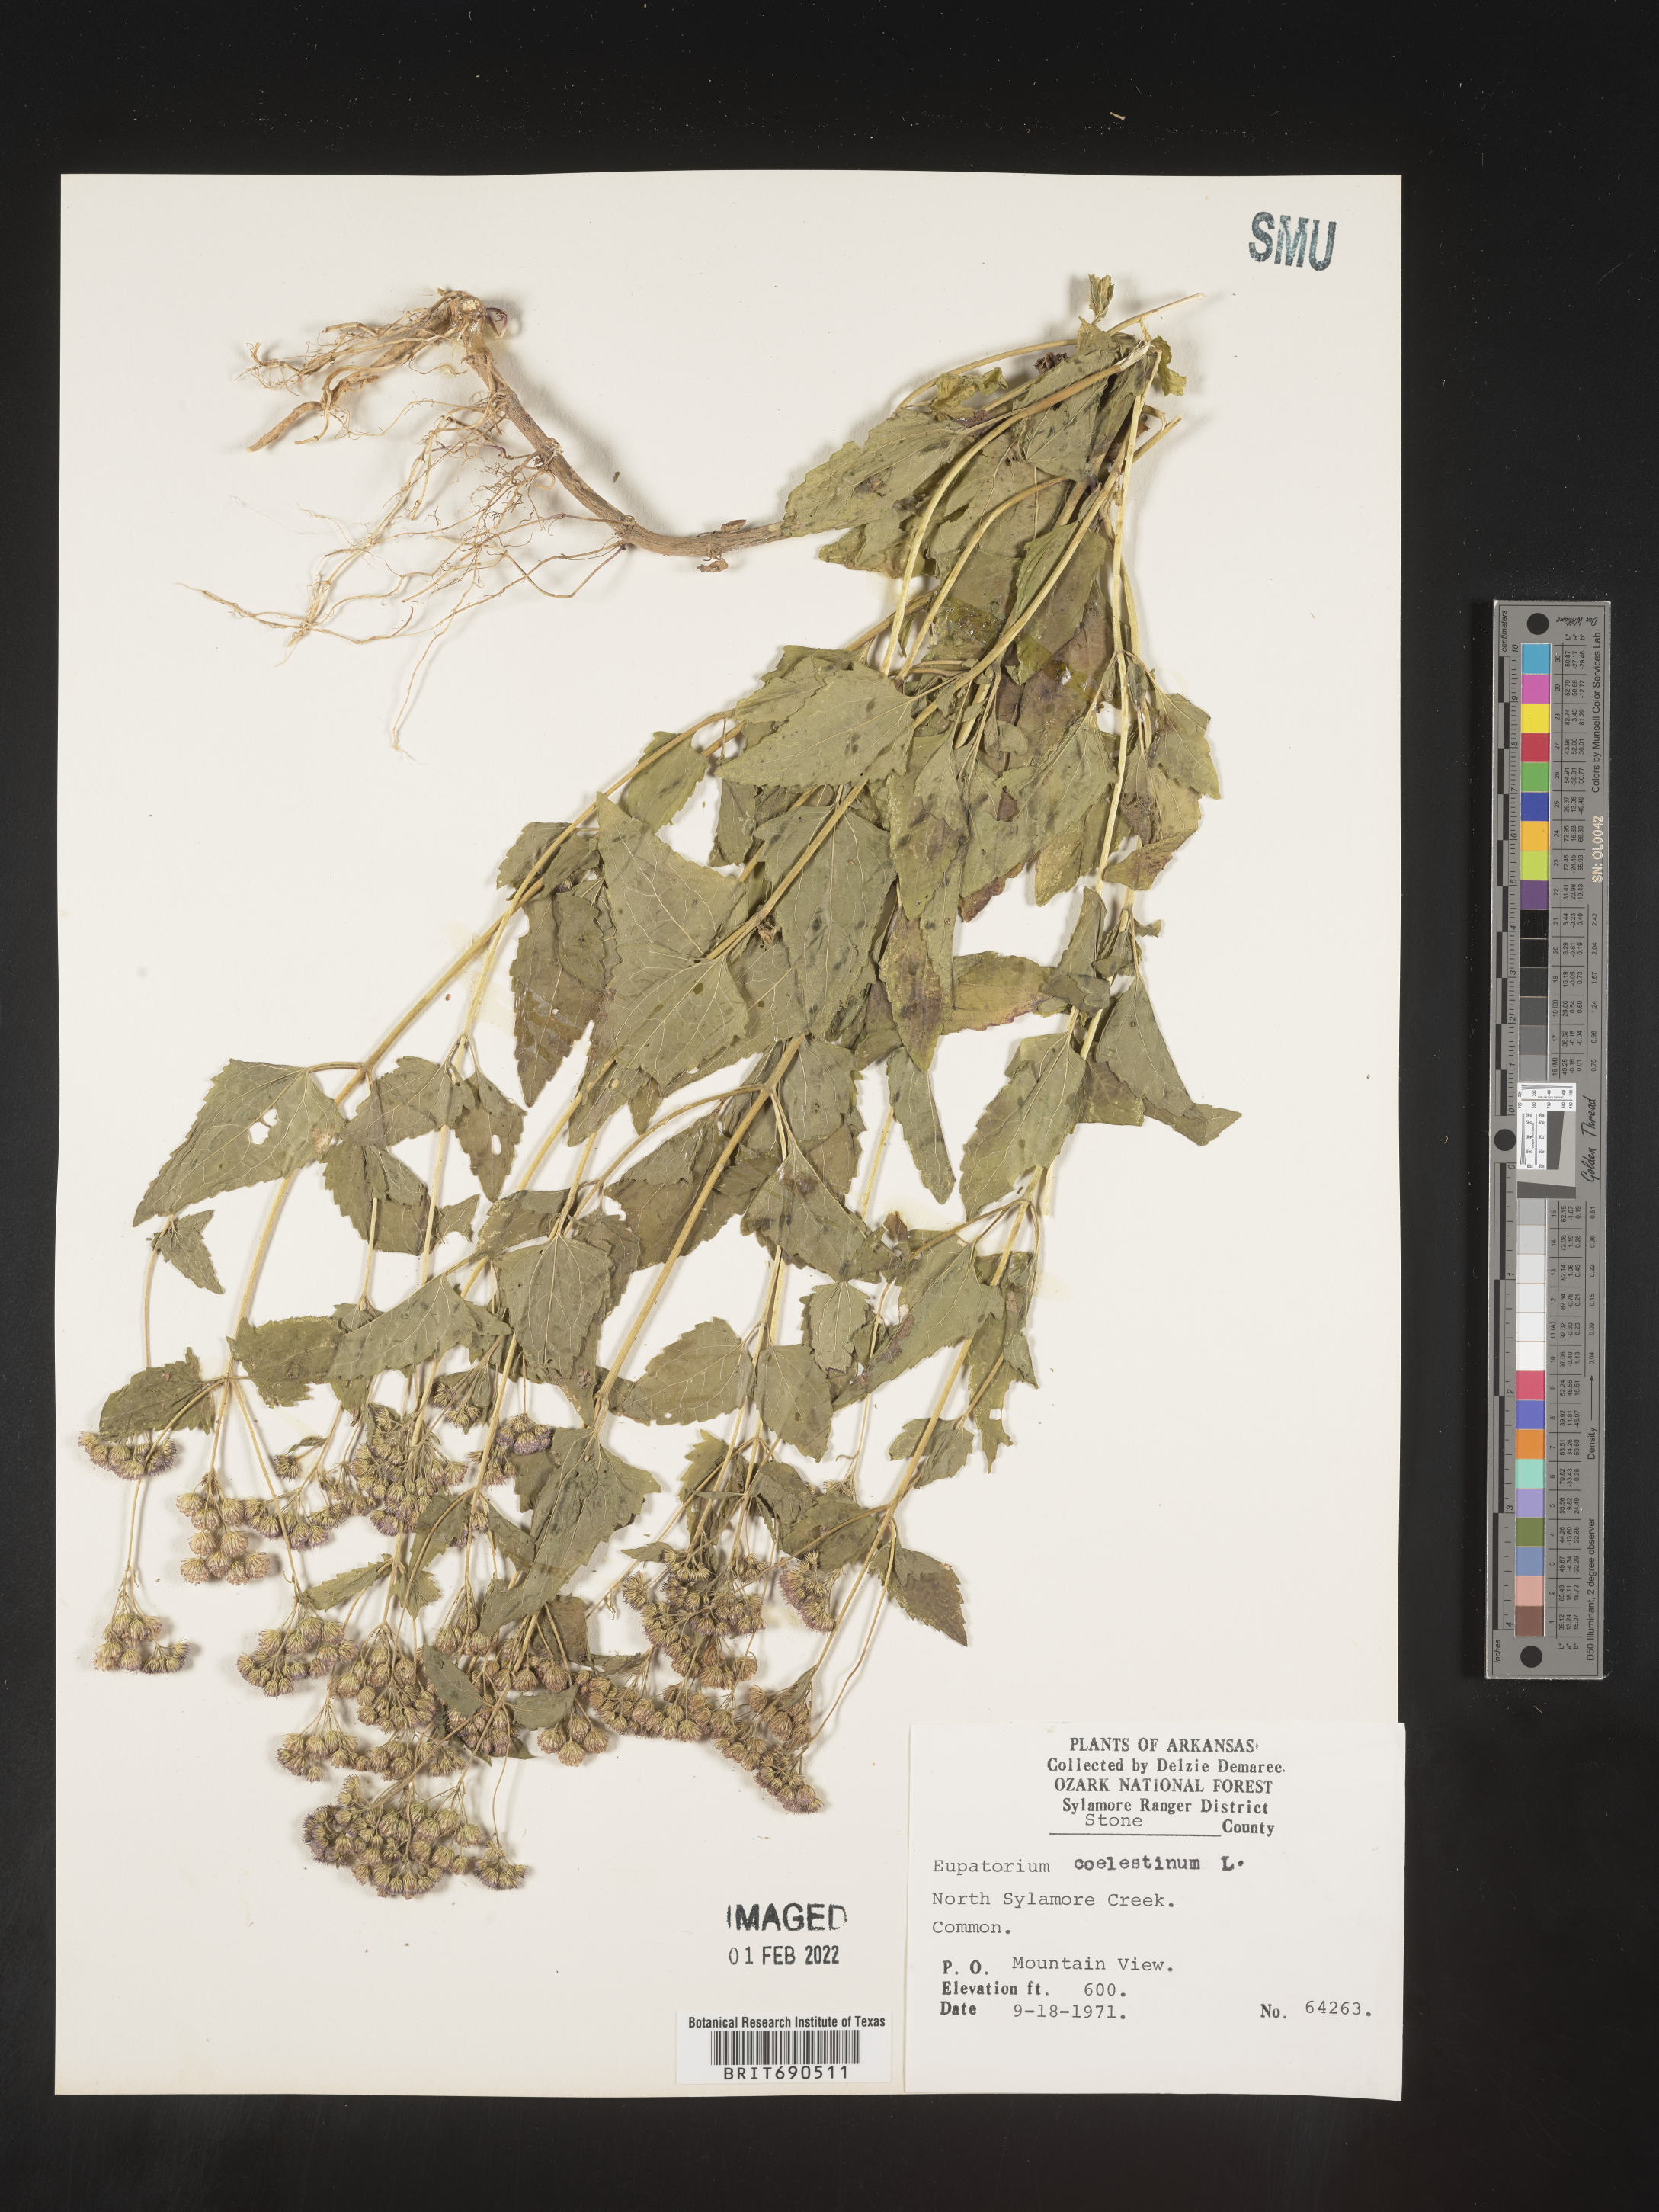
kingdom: Plantae
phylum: Tracheophyta
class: Magnoliopsida
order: Asterales
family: Asteraceae
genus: Conoclinium
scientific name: Conoclinium coelestinum
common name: Blue mistflower
